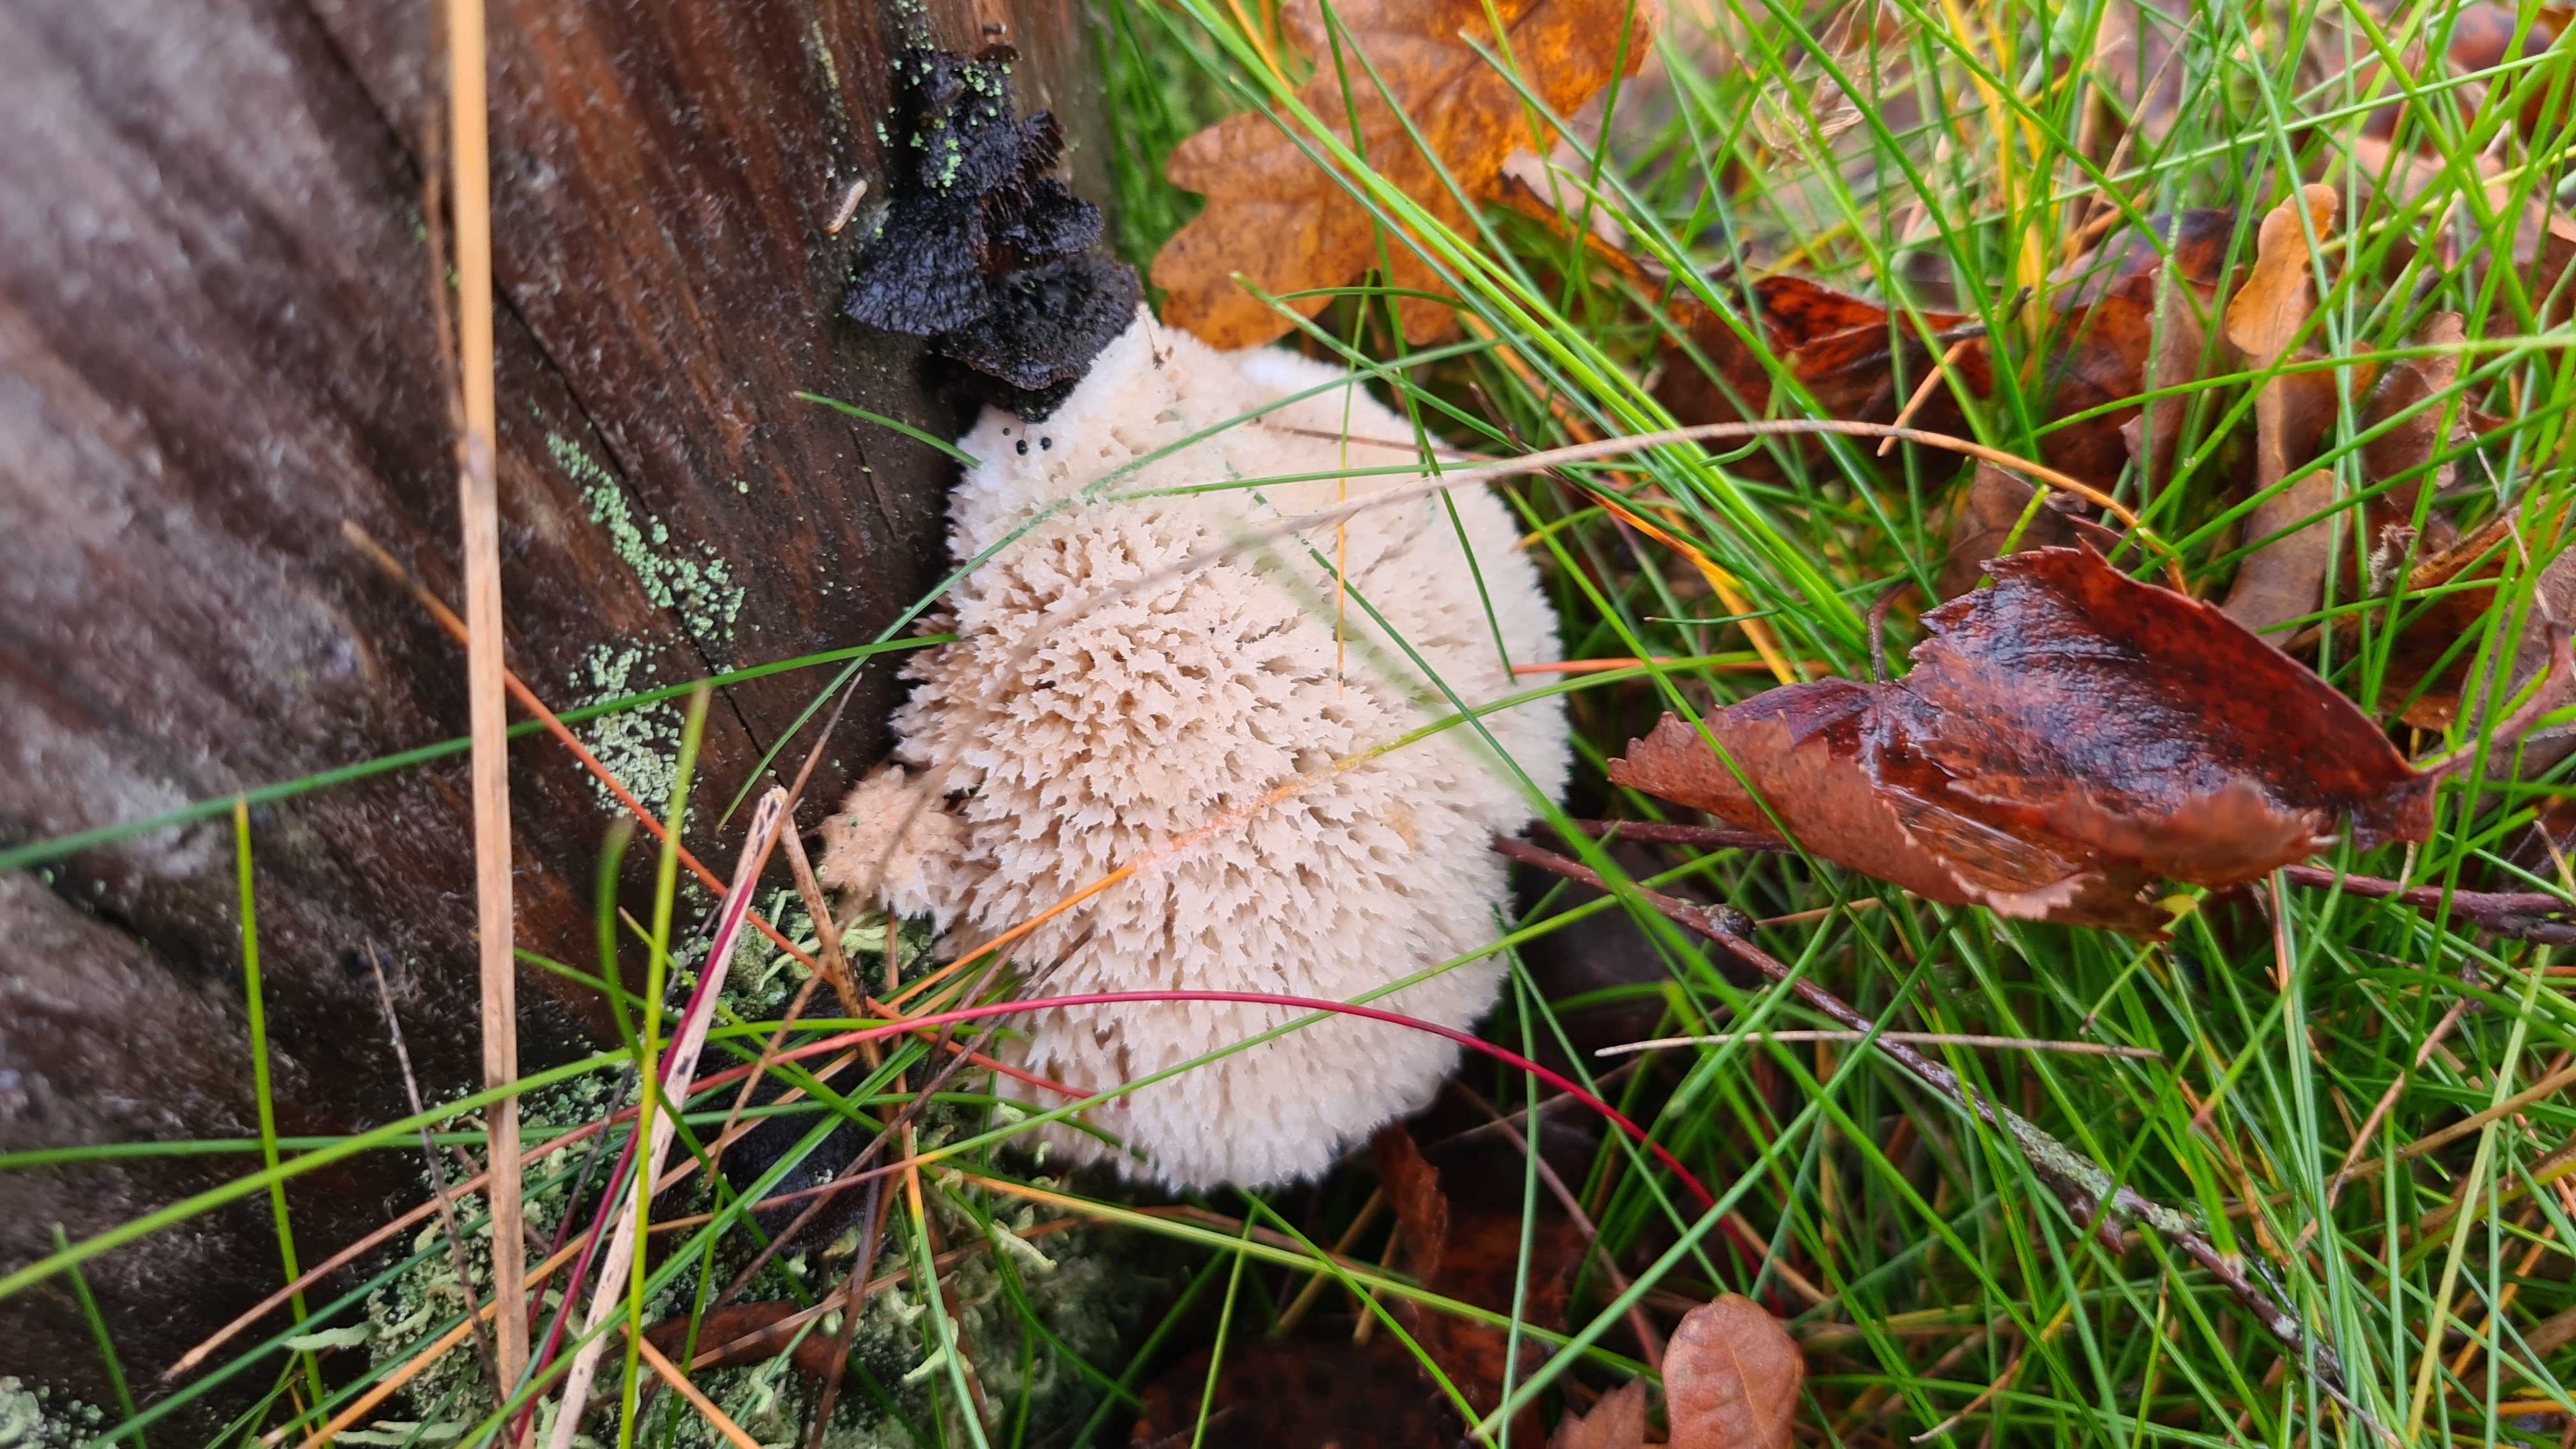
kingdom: Fungi
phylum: Basidiomycota
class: Agaricomycetes
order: Polyporales
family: Dacryobolaceae
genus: Postia
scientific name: Postia ptychogaster
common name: støvende kødporesvamp
